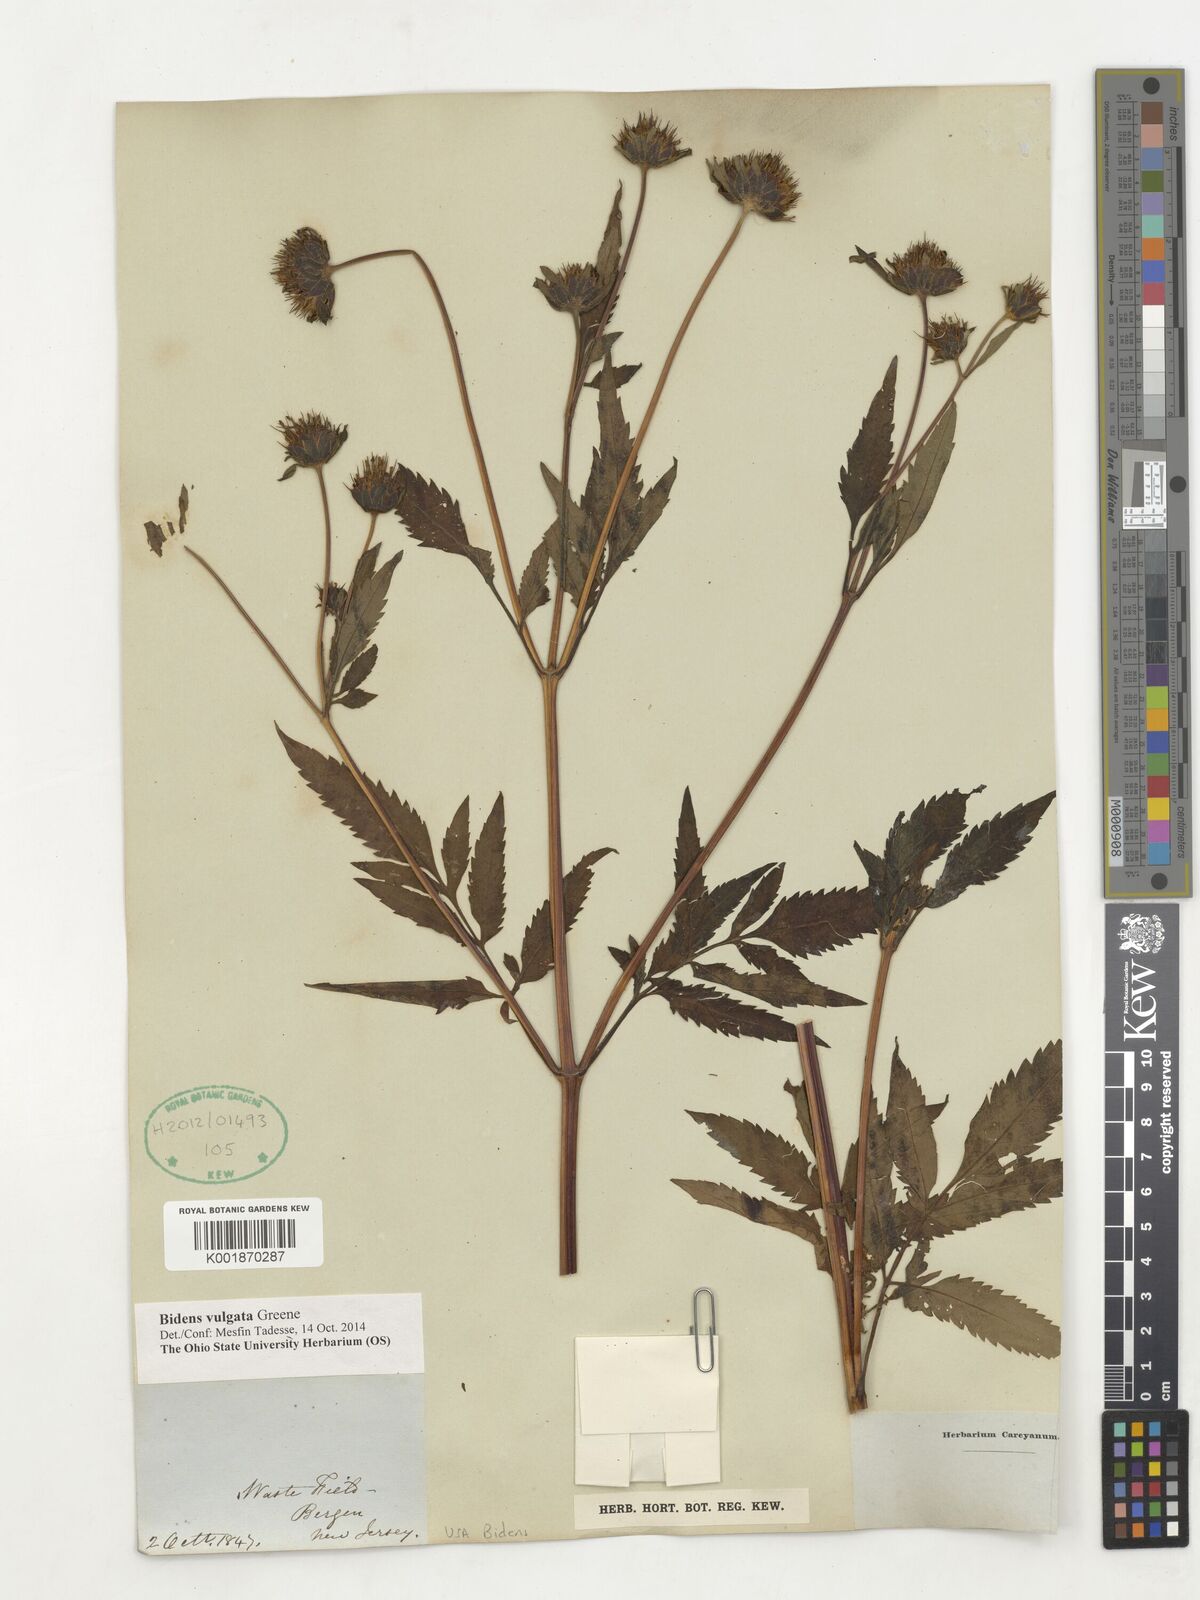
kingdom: Plantae
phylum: Tracheophyta
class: Magnoliopsida
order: Asterales
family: Asteraceae
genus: Bidens
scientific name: Bidens vulgata
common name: Tall beggarticks
